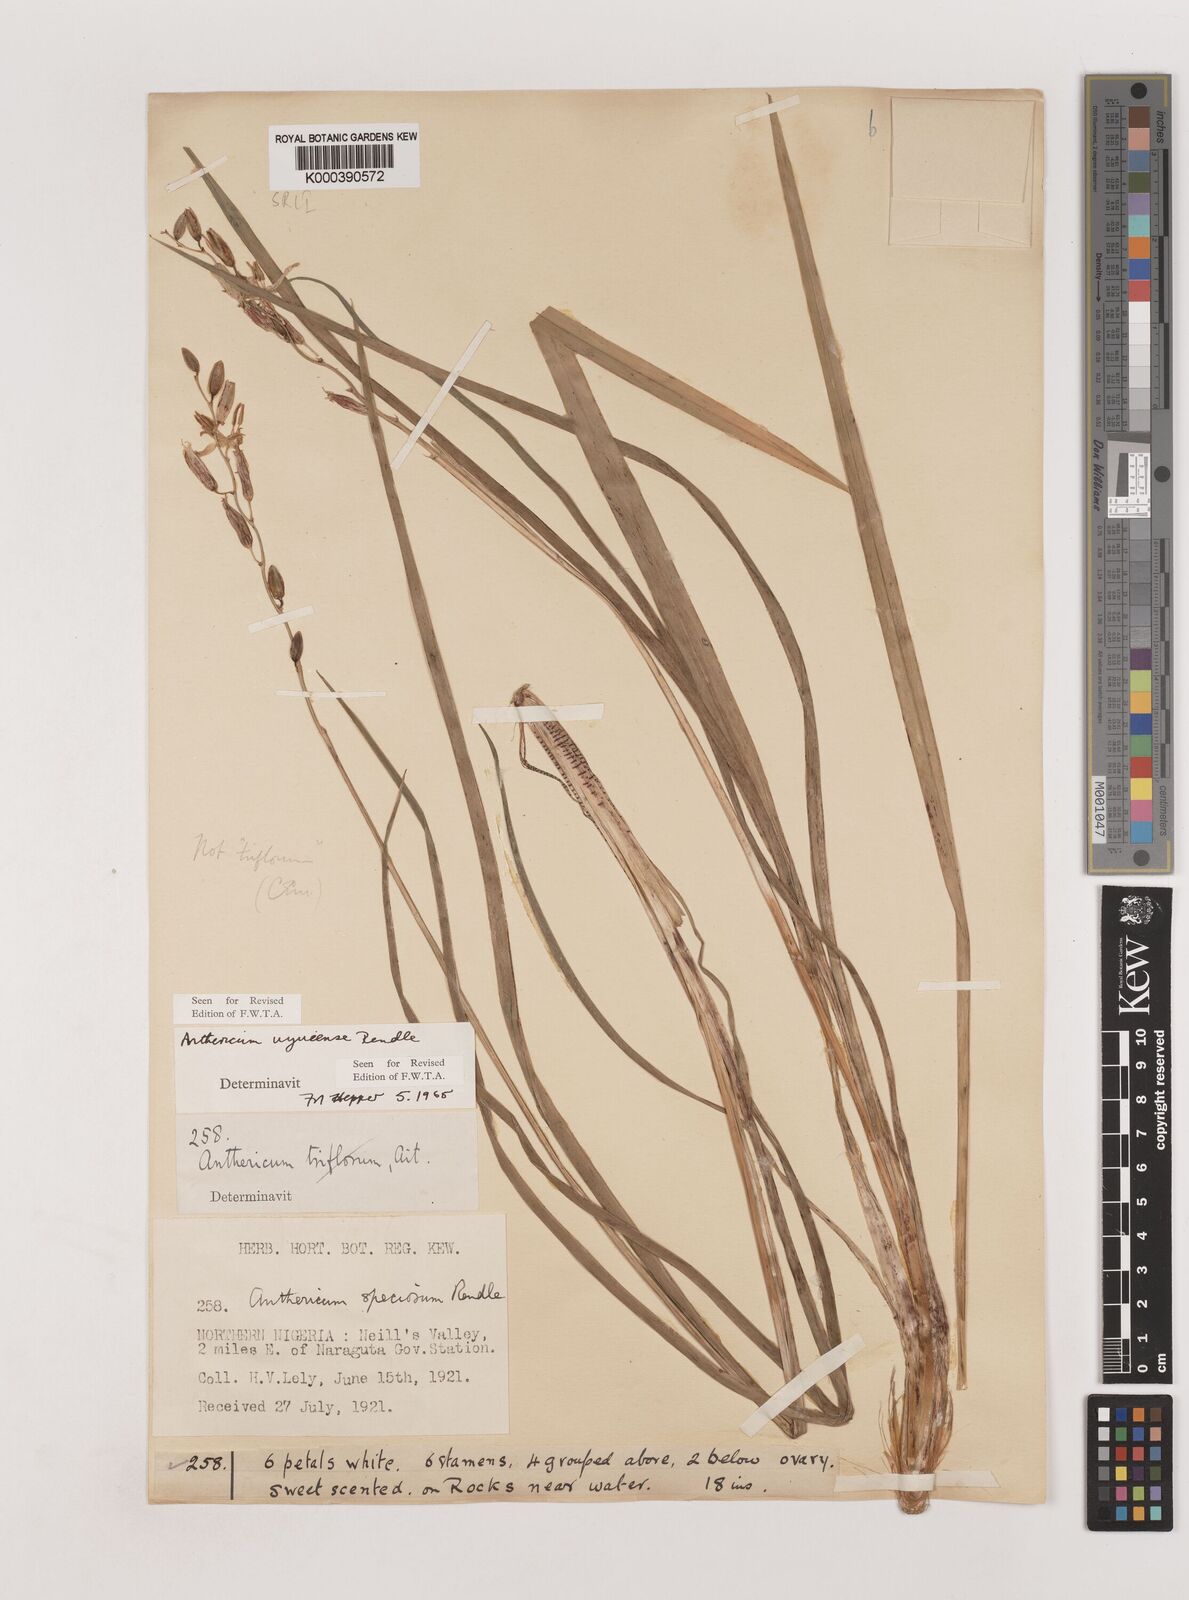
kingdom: Plantae
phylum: Tracheophyta
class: Liliopsida
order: Asparagales
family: Asparagaceae
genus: Chlorophytum
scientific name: Chlorophytum cameronii
